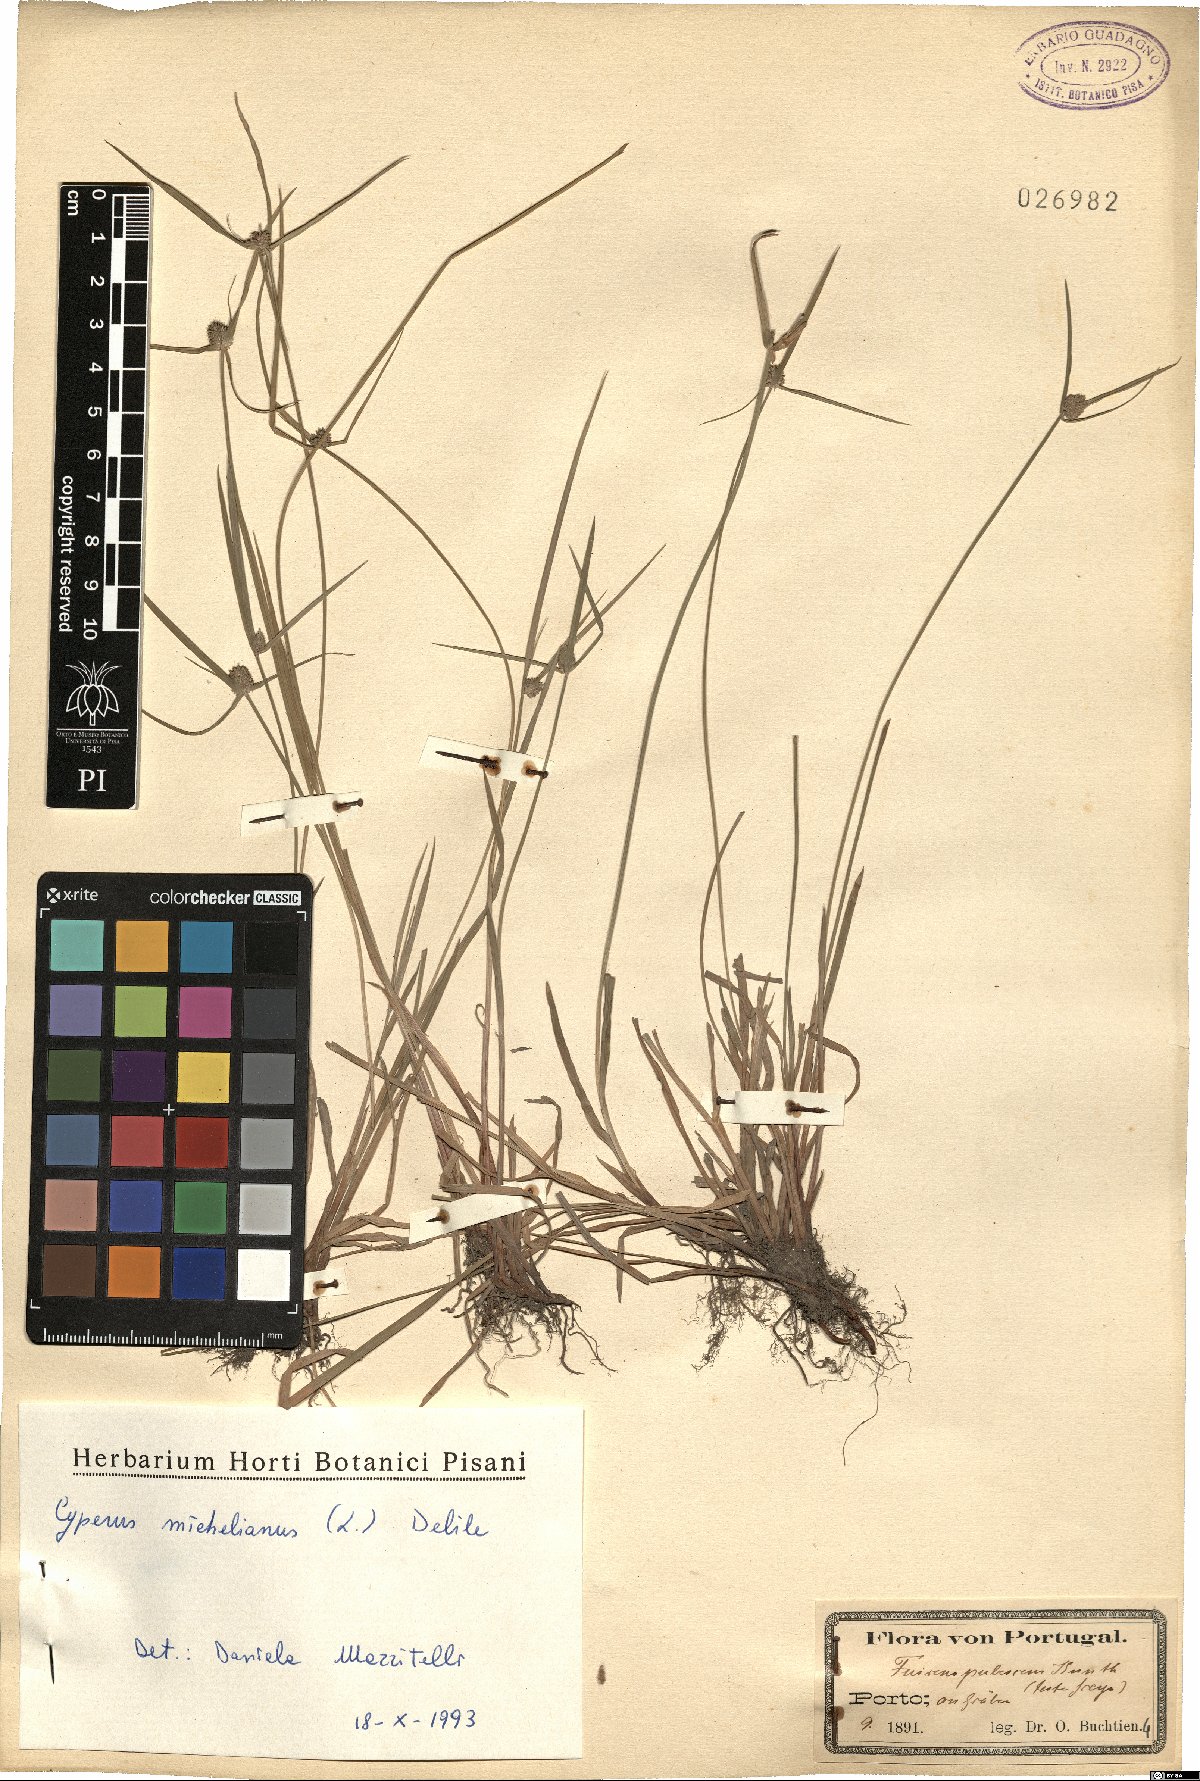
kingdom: Plantae
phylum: Tracheophyta
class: Liliopsida
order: Poales
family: Cyperaceae
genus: Cyperus
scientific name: Cyperus michelianus
